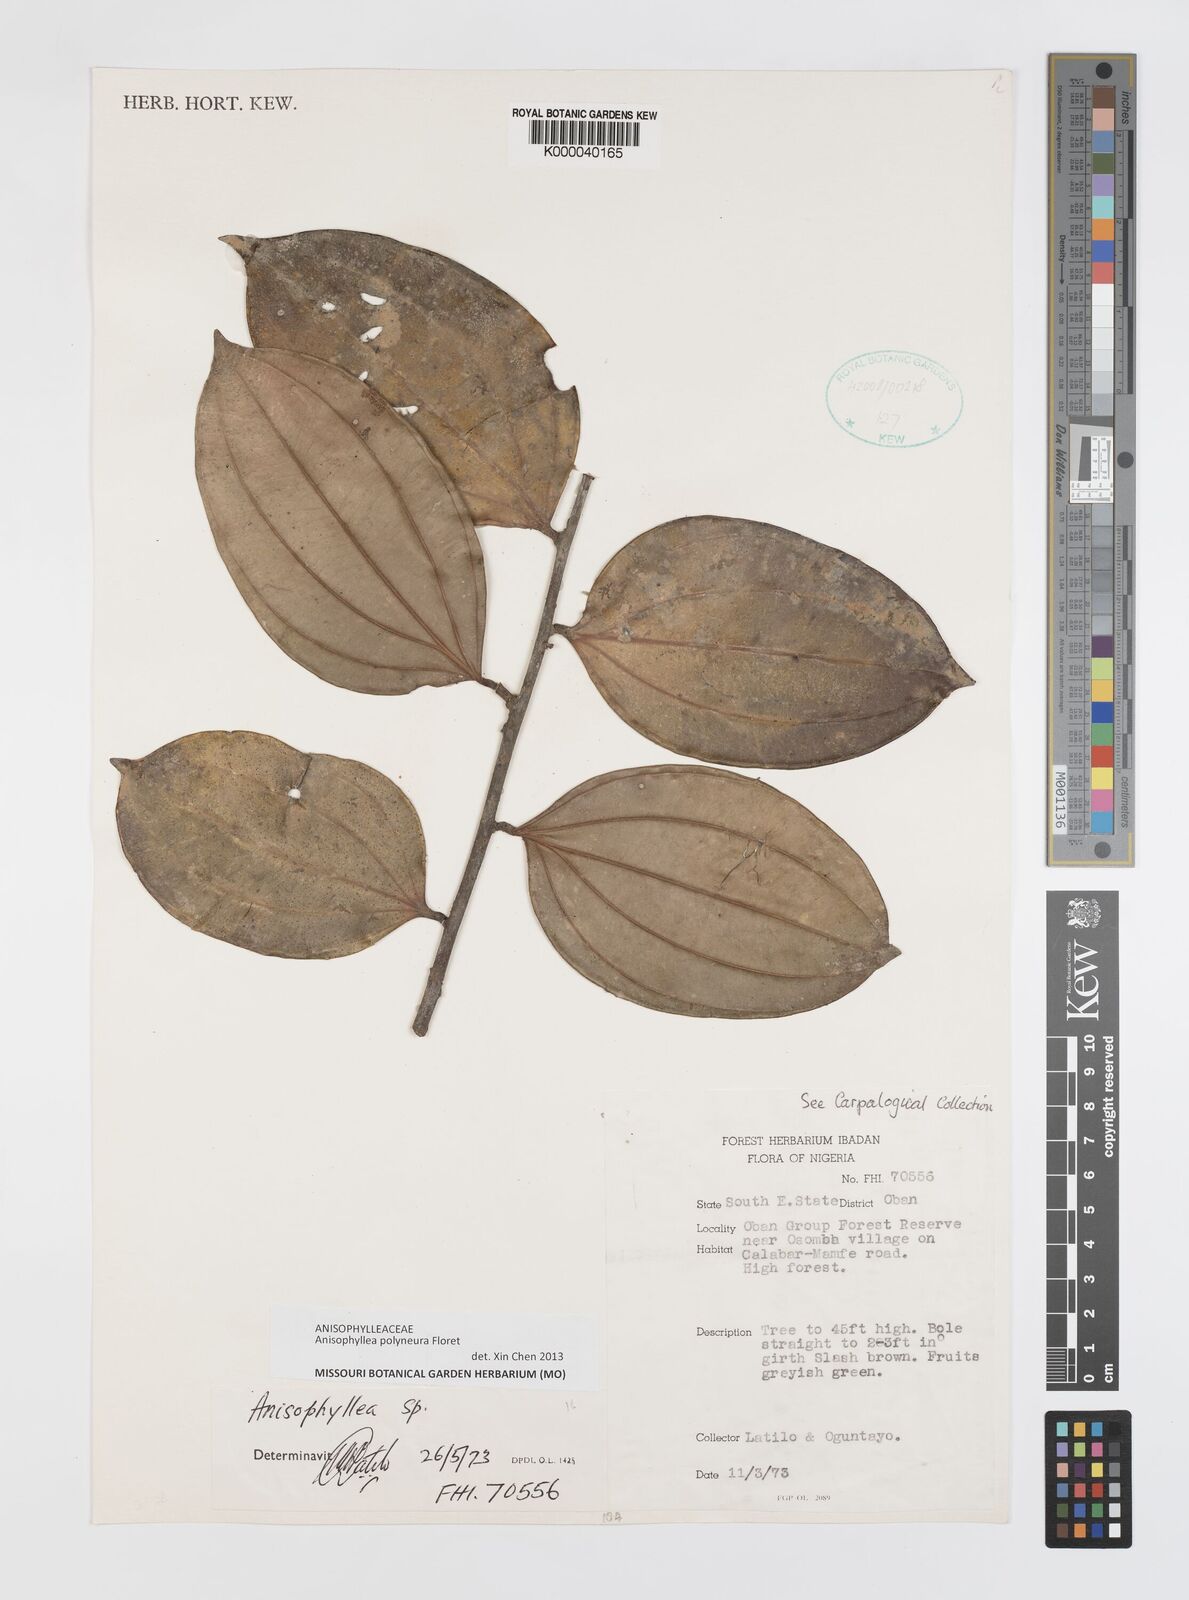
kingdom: Plantae
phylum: Tracheophyta
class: Magnoliopsida
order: Cucurbitales
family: Anisophylleaceae
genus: Anisophyllea
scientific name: Anisophyllea
